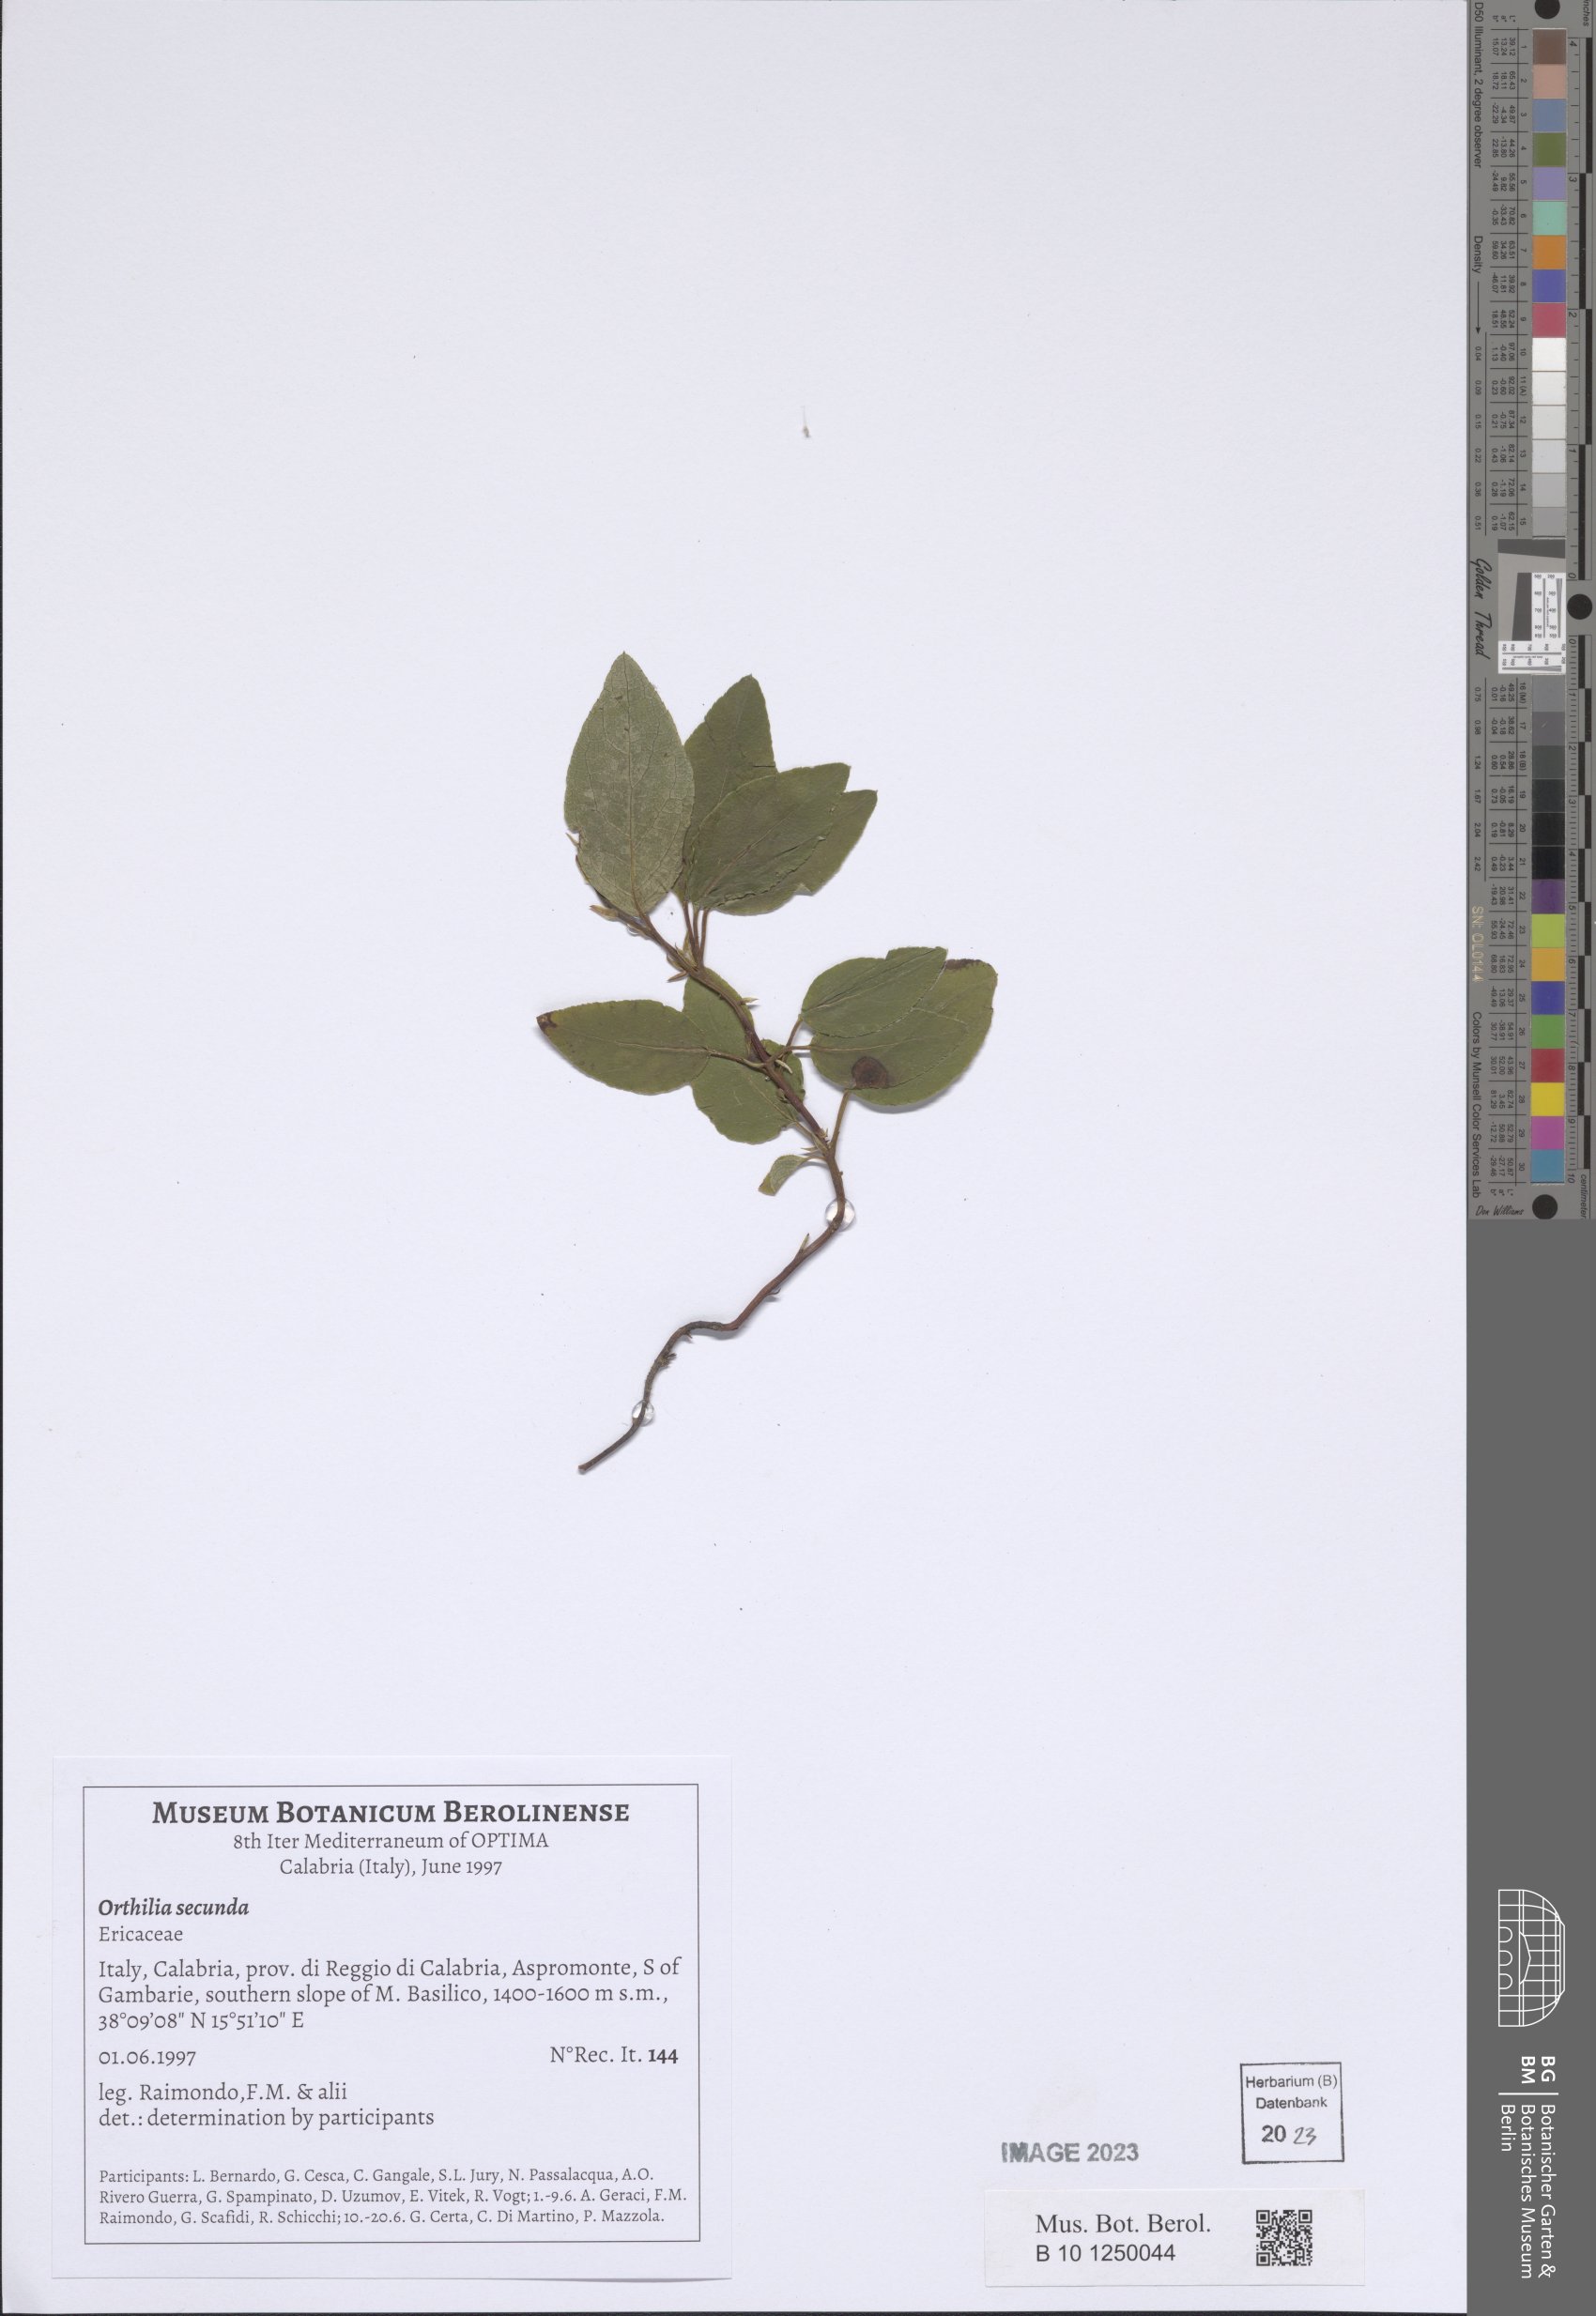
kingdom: Plantae
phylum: Tracheophyta
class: Magnoliopsida
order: Ericales
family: Ericaceae
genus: Orthilia
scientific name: Orthilia secunda
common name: One-sided orthilia
